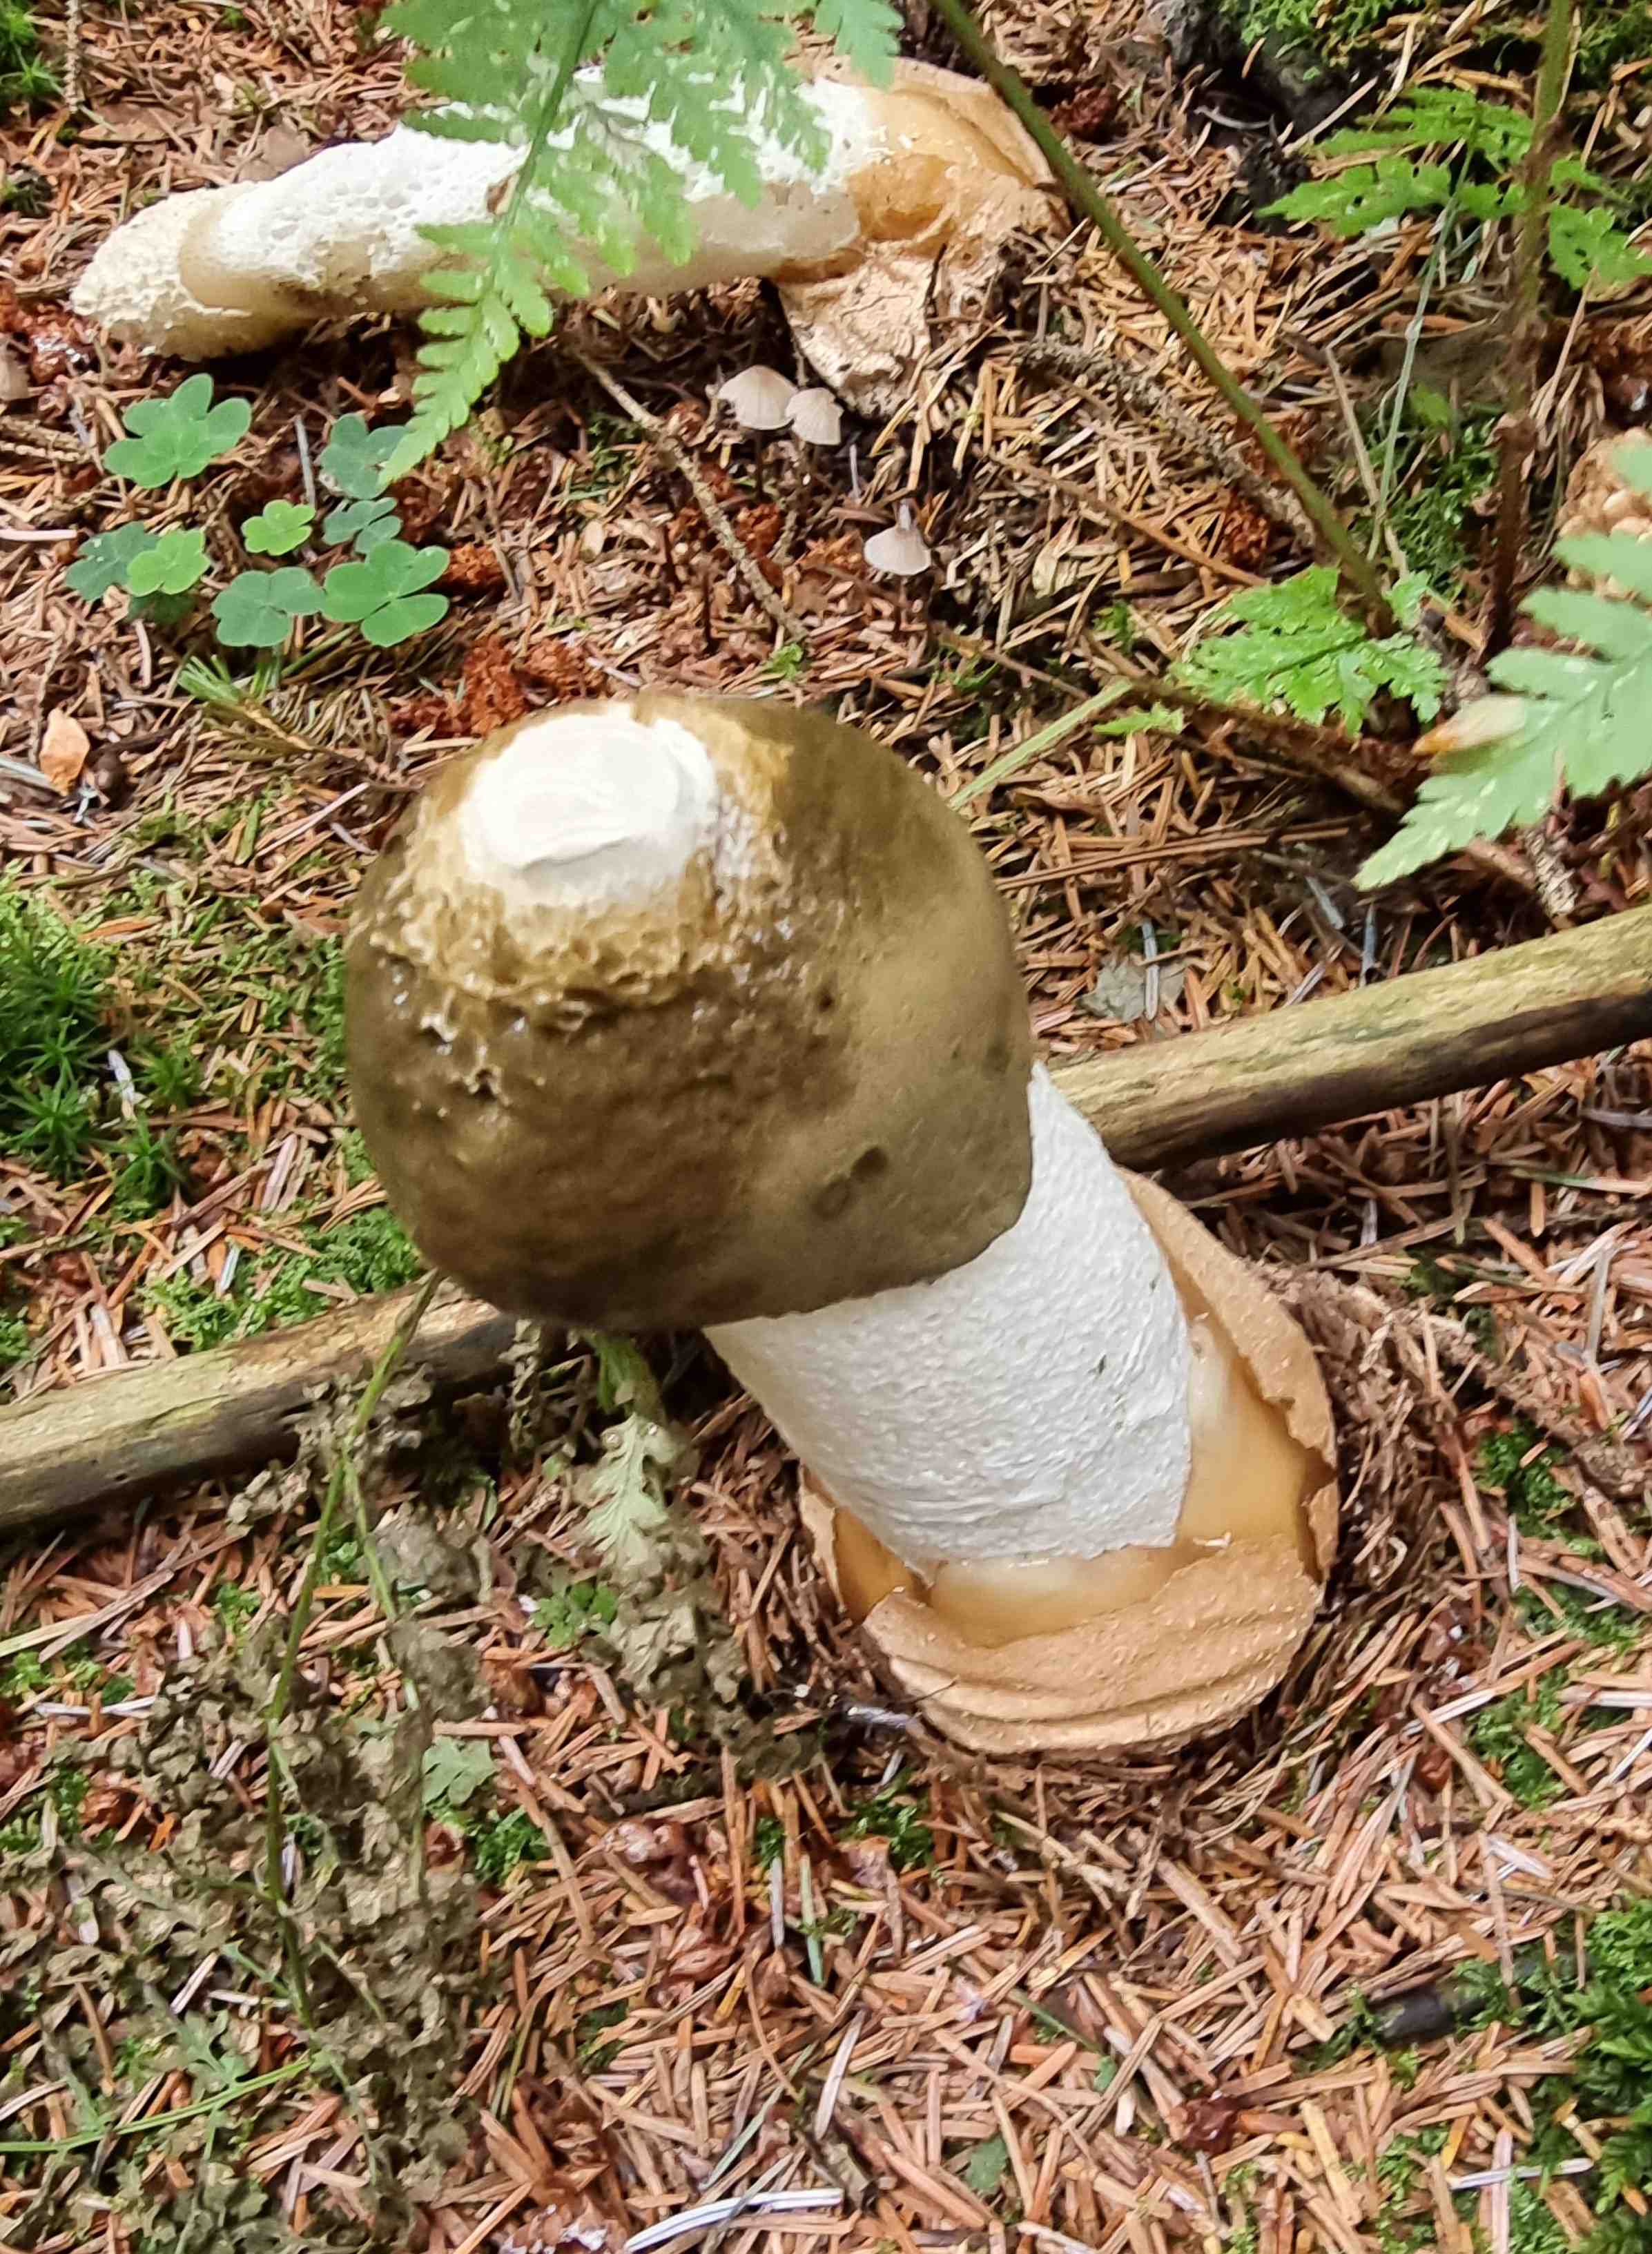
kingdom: Fungi
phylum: Basidiomycota
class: Agaricomycetes
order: Phallales
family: Phallaceae
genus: Phallus
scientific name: Phallus impudicus
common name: almindelig stinksvamp
